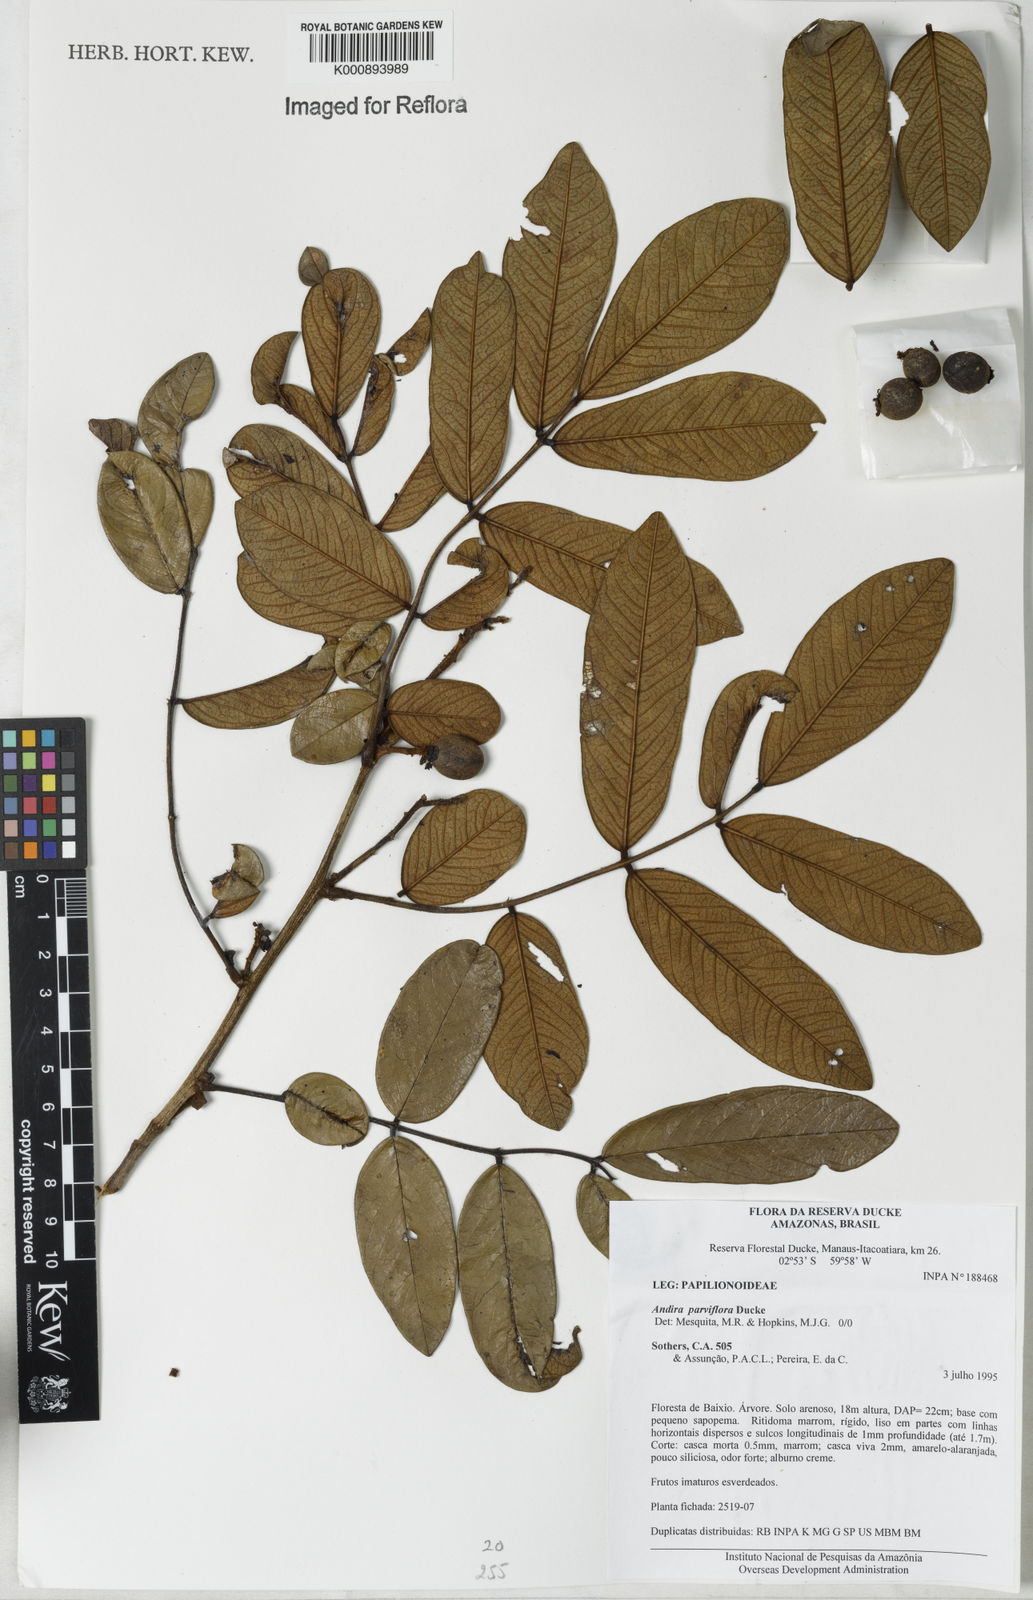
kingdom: Plantae
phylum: Tracheophyta
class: Magnoliopsida
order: Fabales
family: Fabaceae
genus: Andira
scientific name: Andira parviflora
